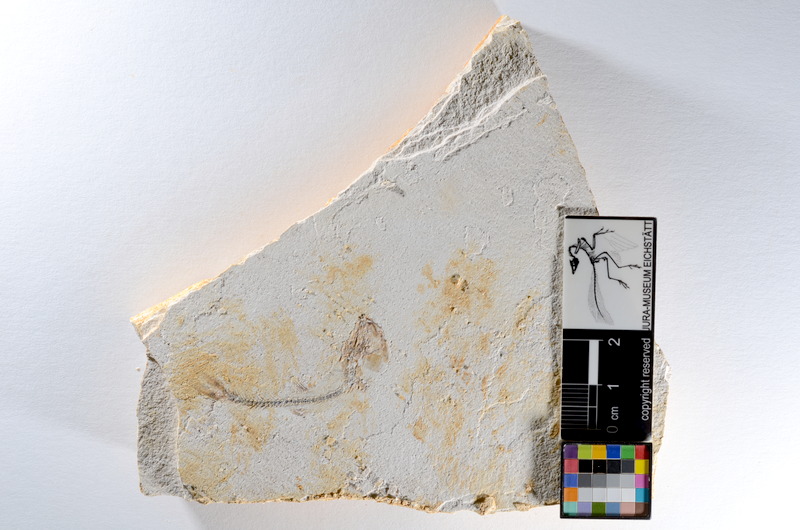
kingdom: Animalia
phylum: Chordata
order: Salmoniformes
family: Orthogonikleithridae
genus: Orthogonikleithrus
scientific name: Orthogonikleithrus hoelli
